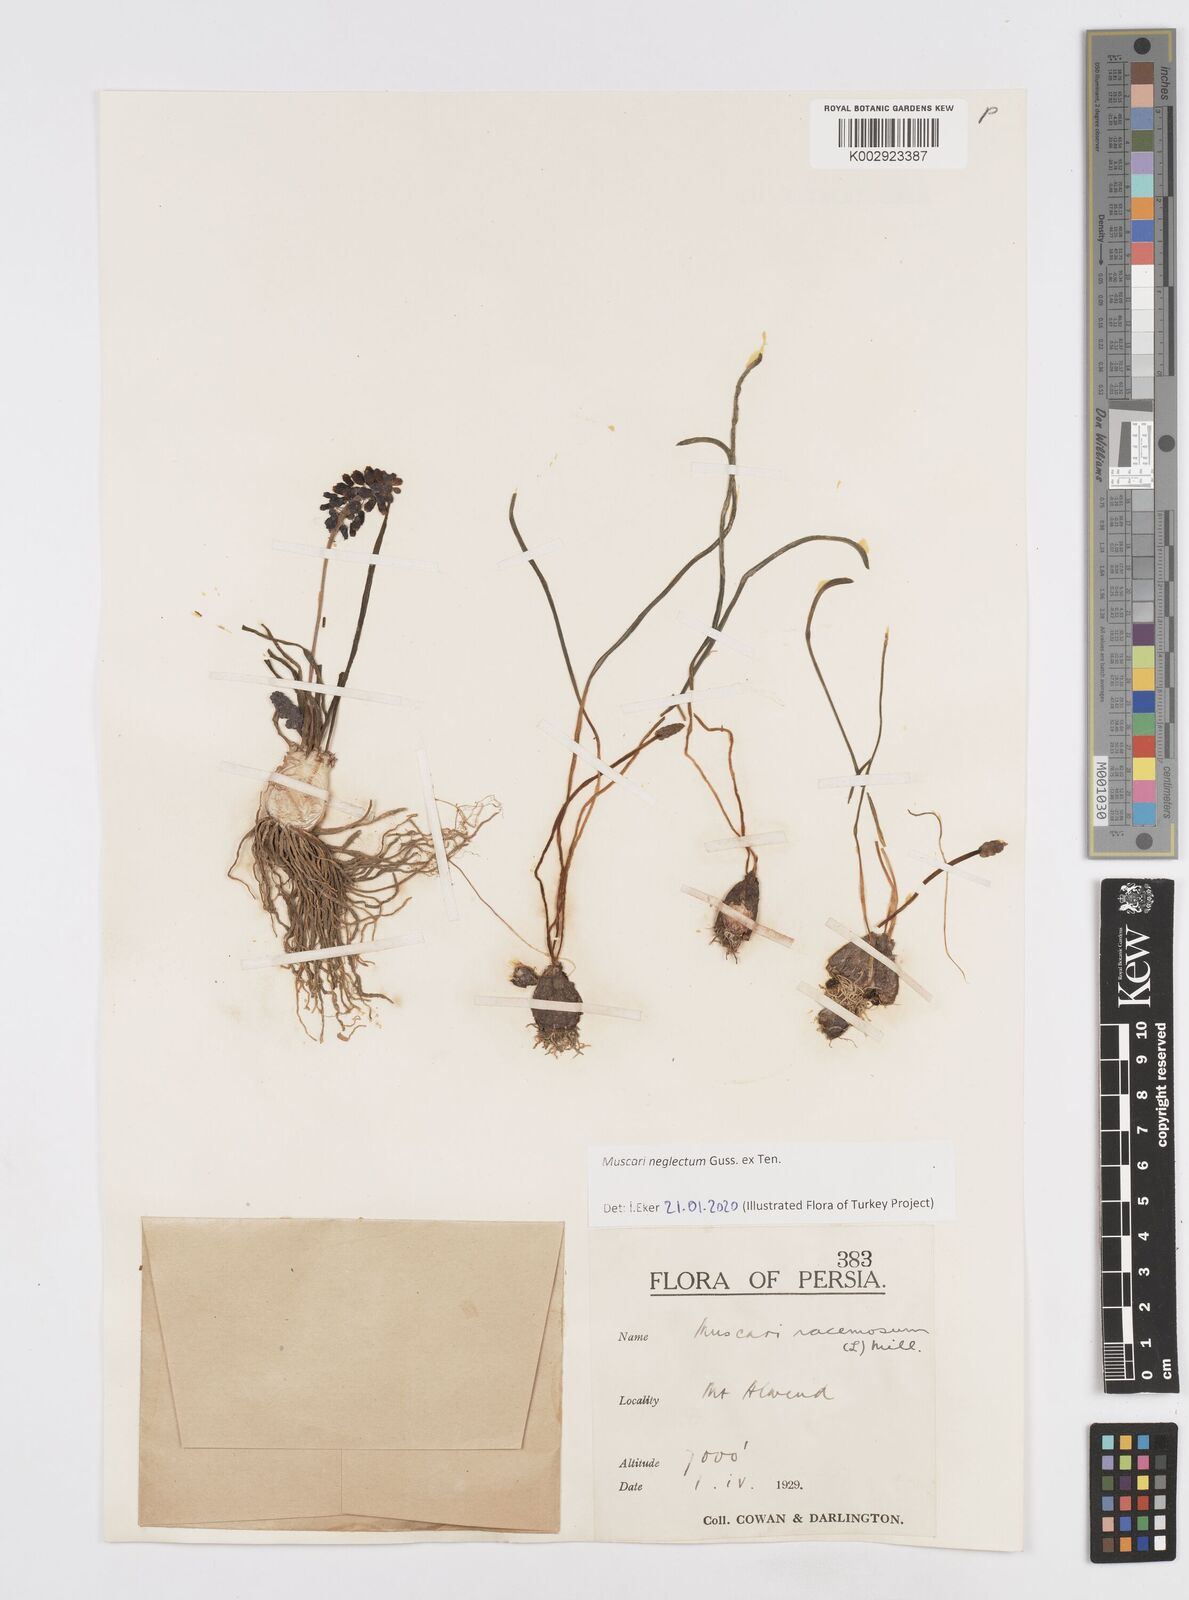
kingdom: Plantae
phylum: Tracheophyta
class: Liliopsida
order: Asparagales
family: Asparagaceae
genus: Muscari
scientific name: Muscari neglectum
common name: Grape-hyacinth
